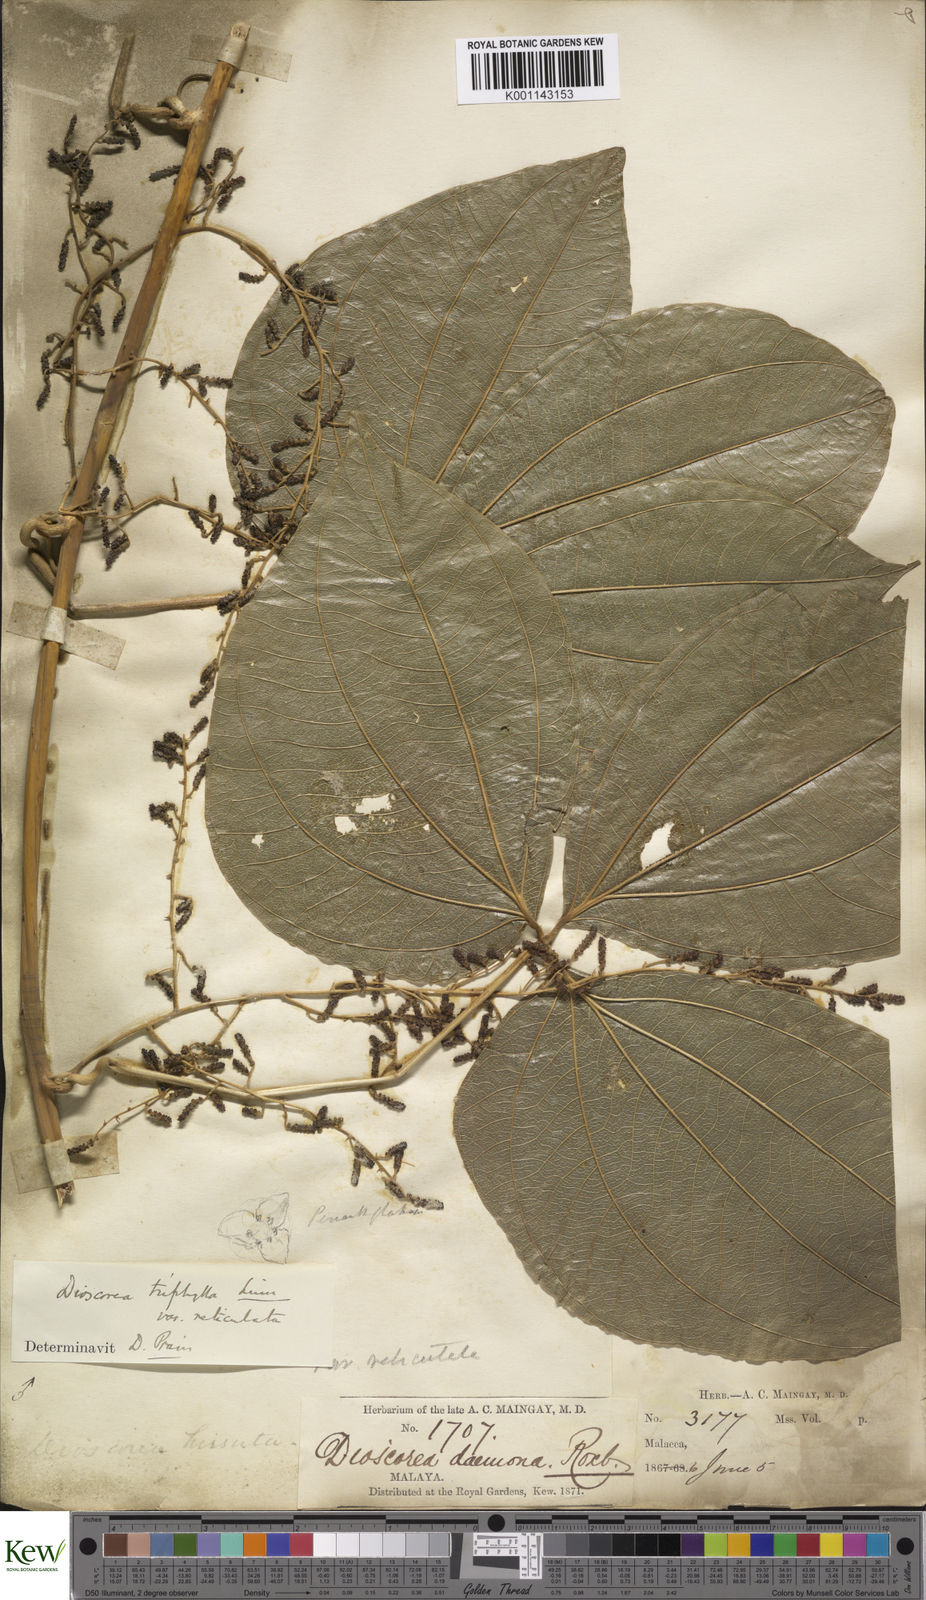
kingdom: Plantae
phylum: Tracheophyta
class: Liliopsida
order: Dioscoreales
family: Dioscoreaceae
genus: Dioscorea
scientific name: Dioscorea hispida
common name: Asiatic bitter yam
